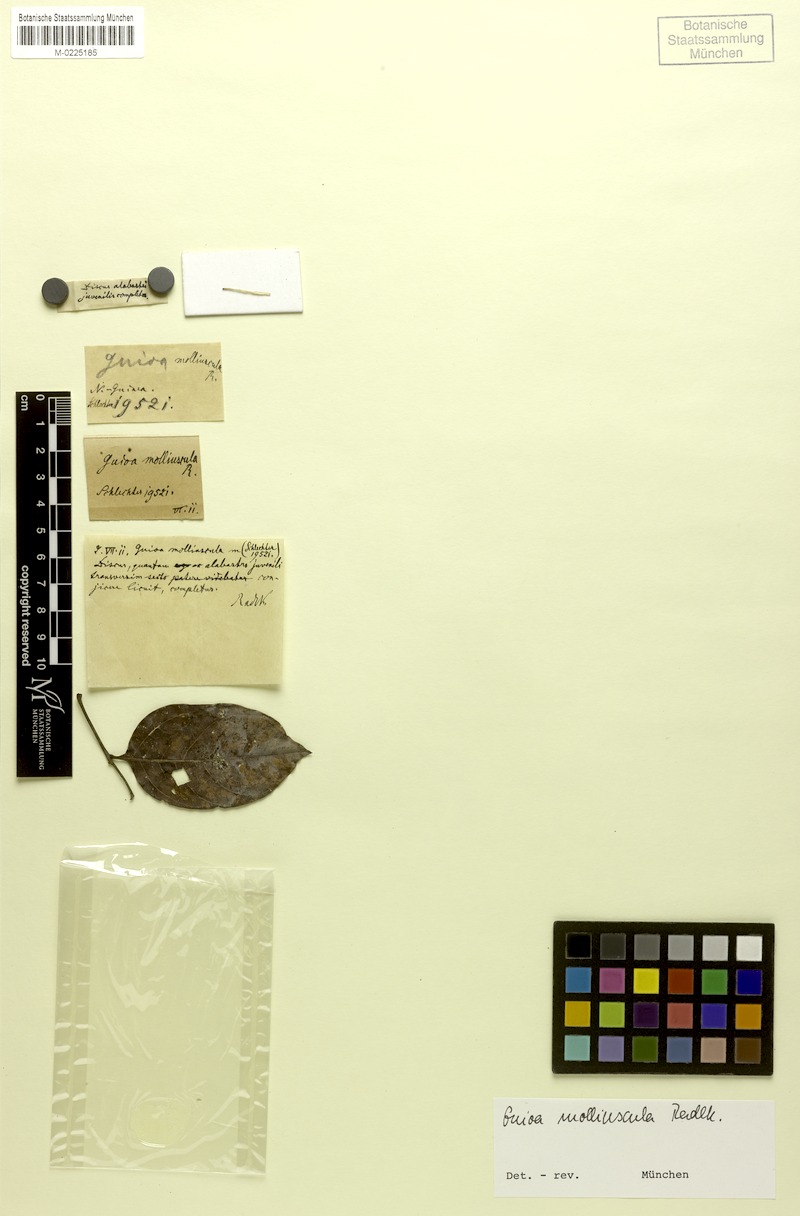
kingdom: Plantae
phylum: Tracheophyta
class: Magnoliopsida
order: Sapindales
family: Sapindaceae
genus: Guioa
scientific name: Guioa molliuscula
